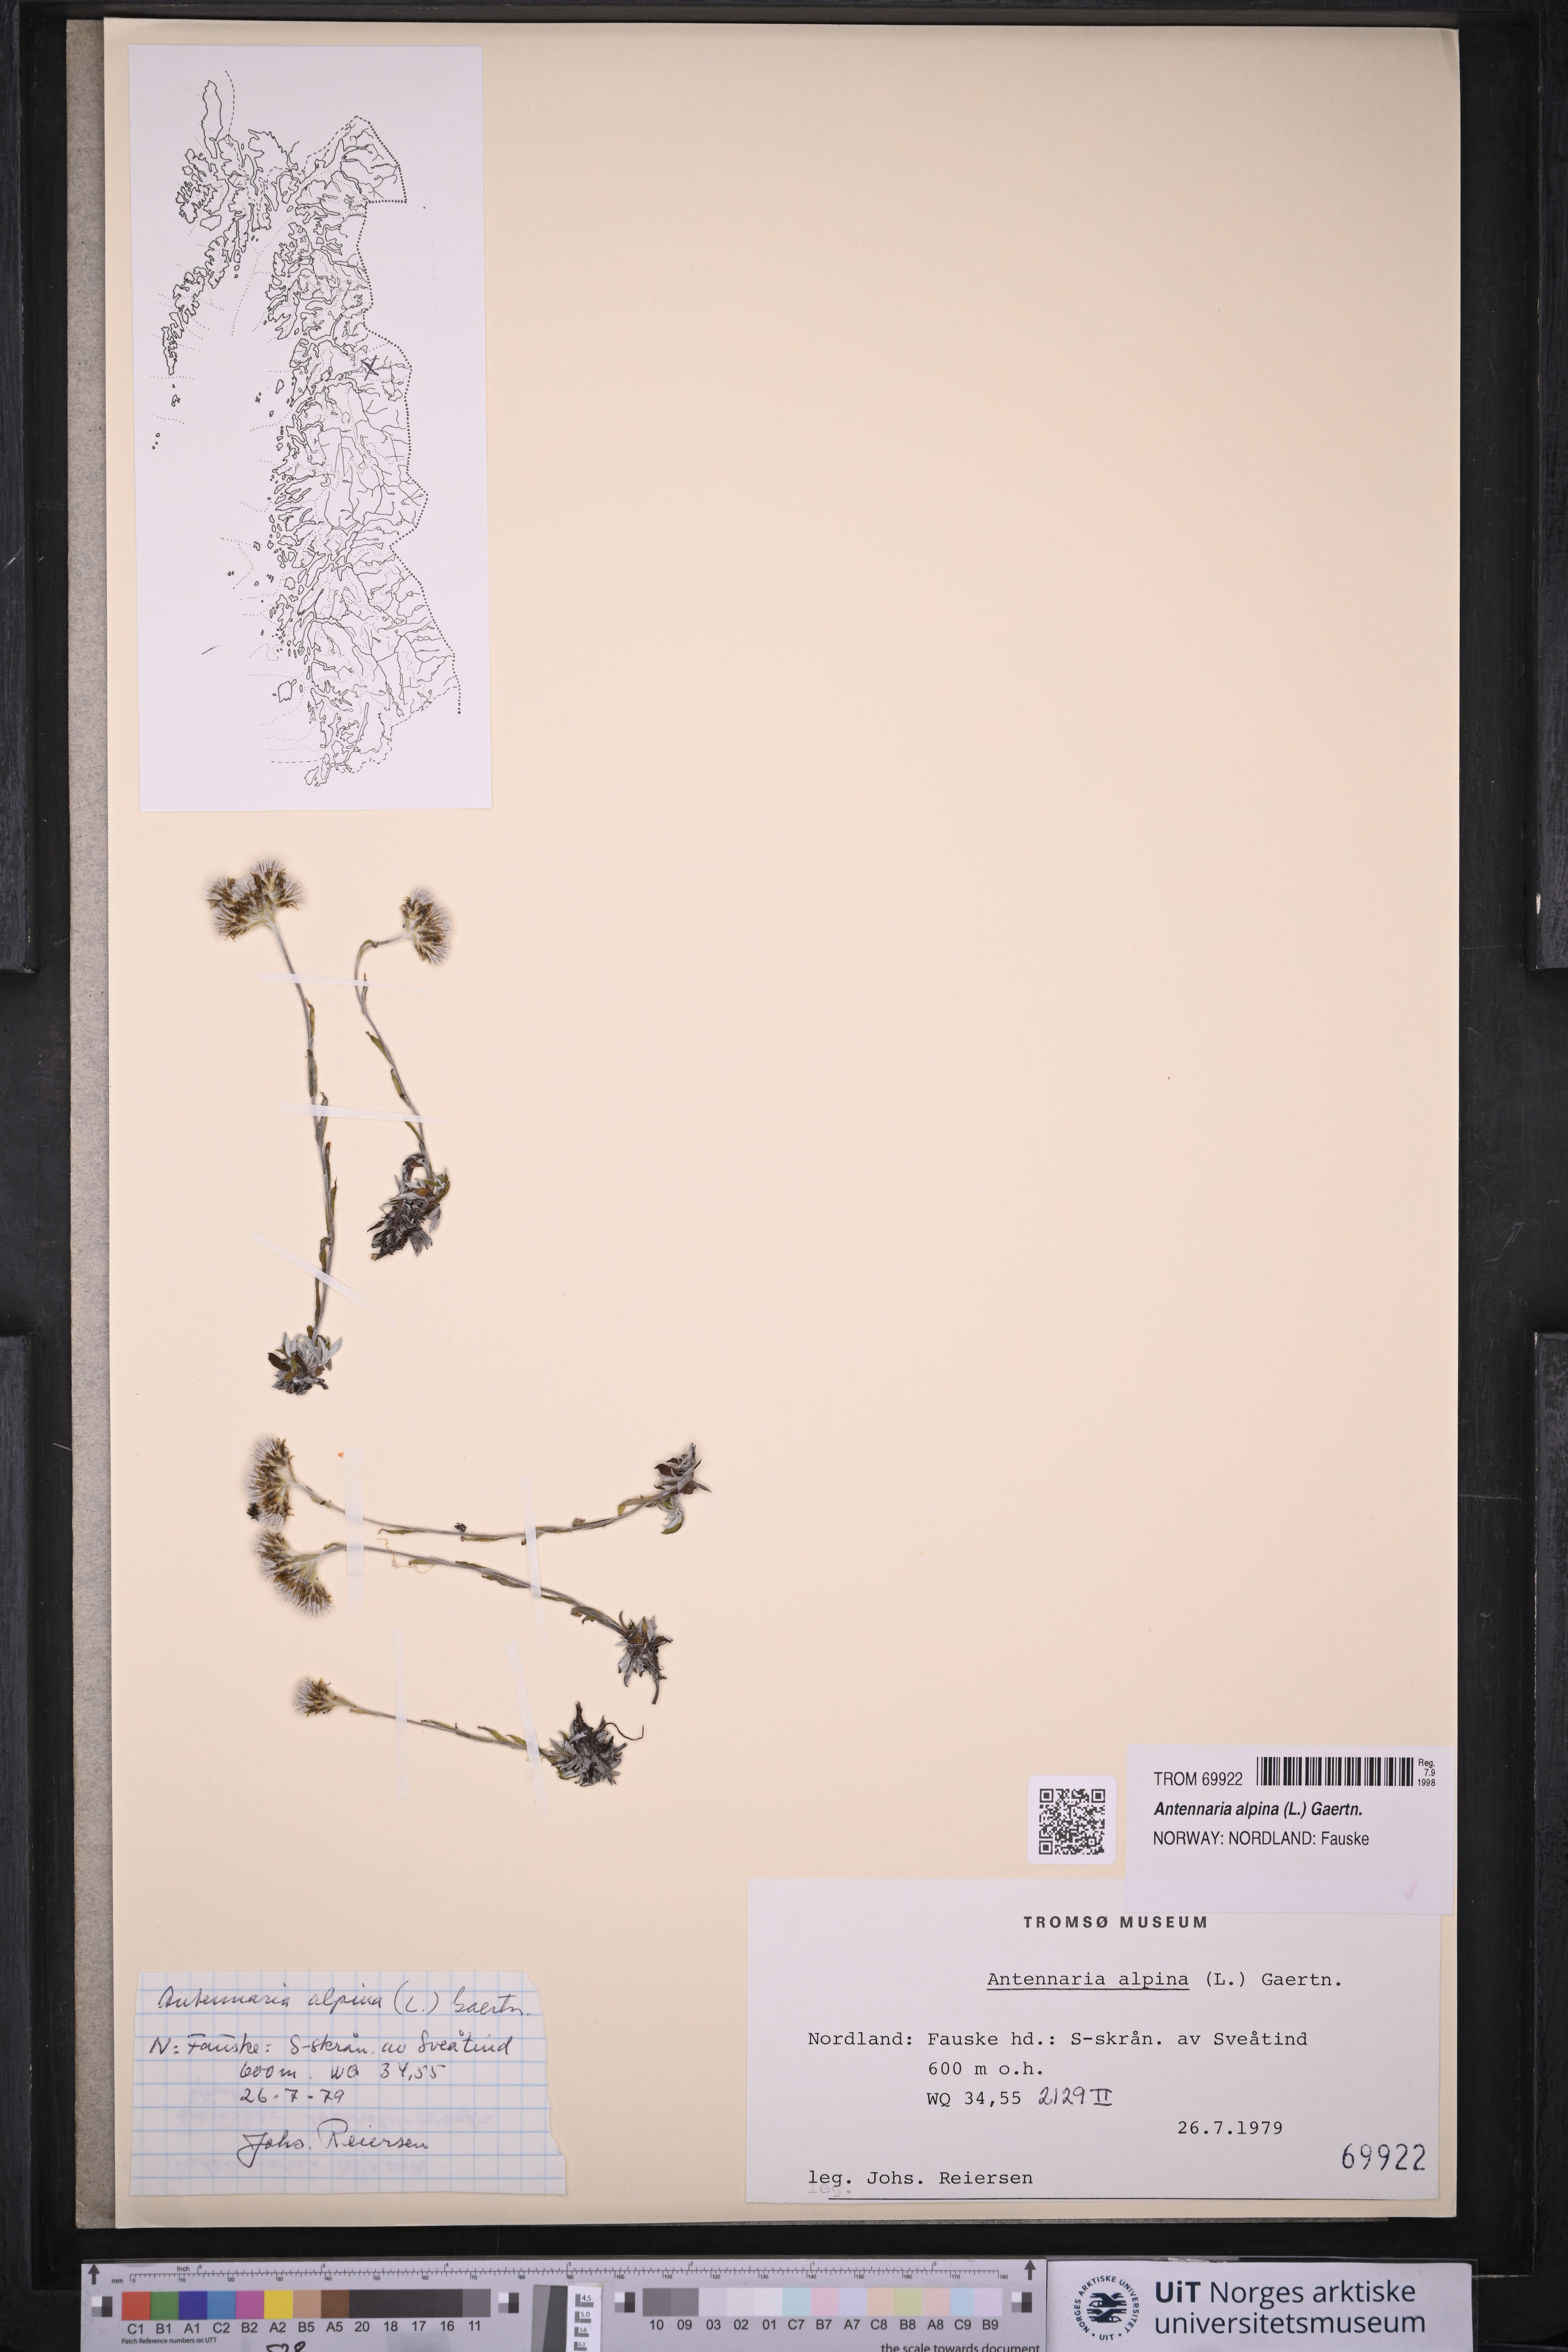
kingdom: Plantae
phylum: Tracheophyta
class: Magnoliopsida
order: Asterales
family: Asteraceae
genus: Antennaria
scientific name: Antennaria alpina
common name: Alpine pussytoes
